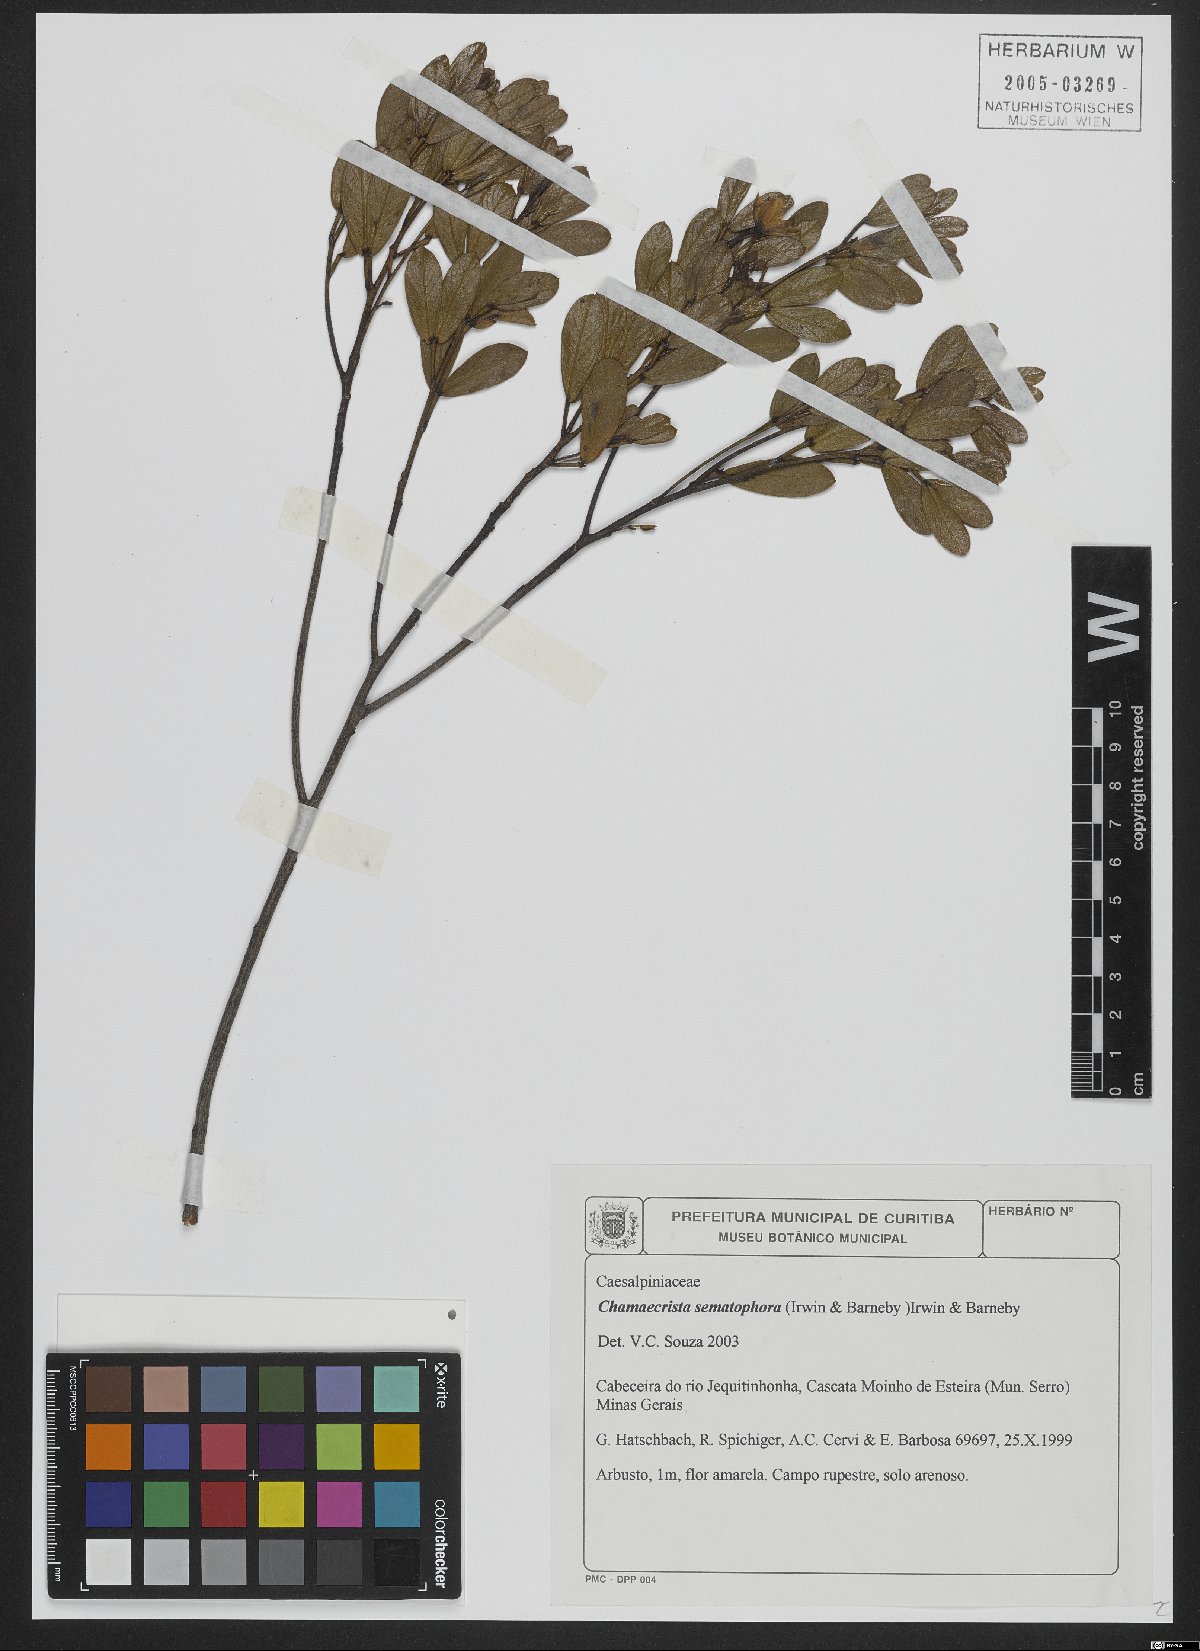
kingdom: Plantae
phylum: Tracheophyta
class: Magnoliopsida
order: Fabales
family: Fabaceae
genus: Chamaecrista
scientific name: Chamaecrista semaphora
